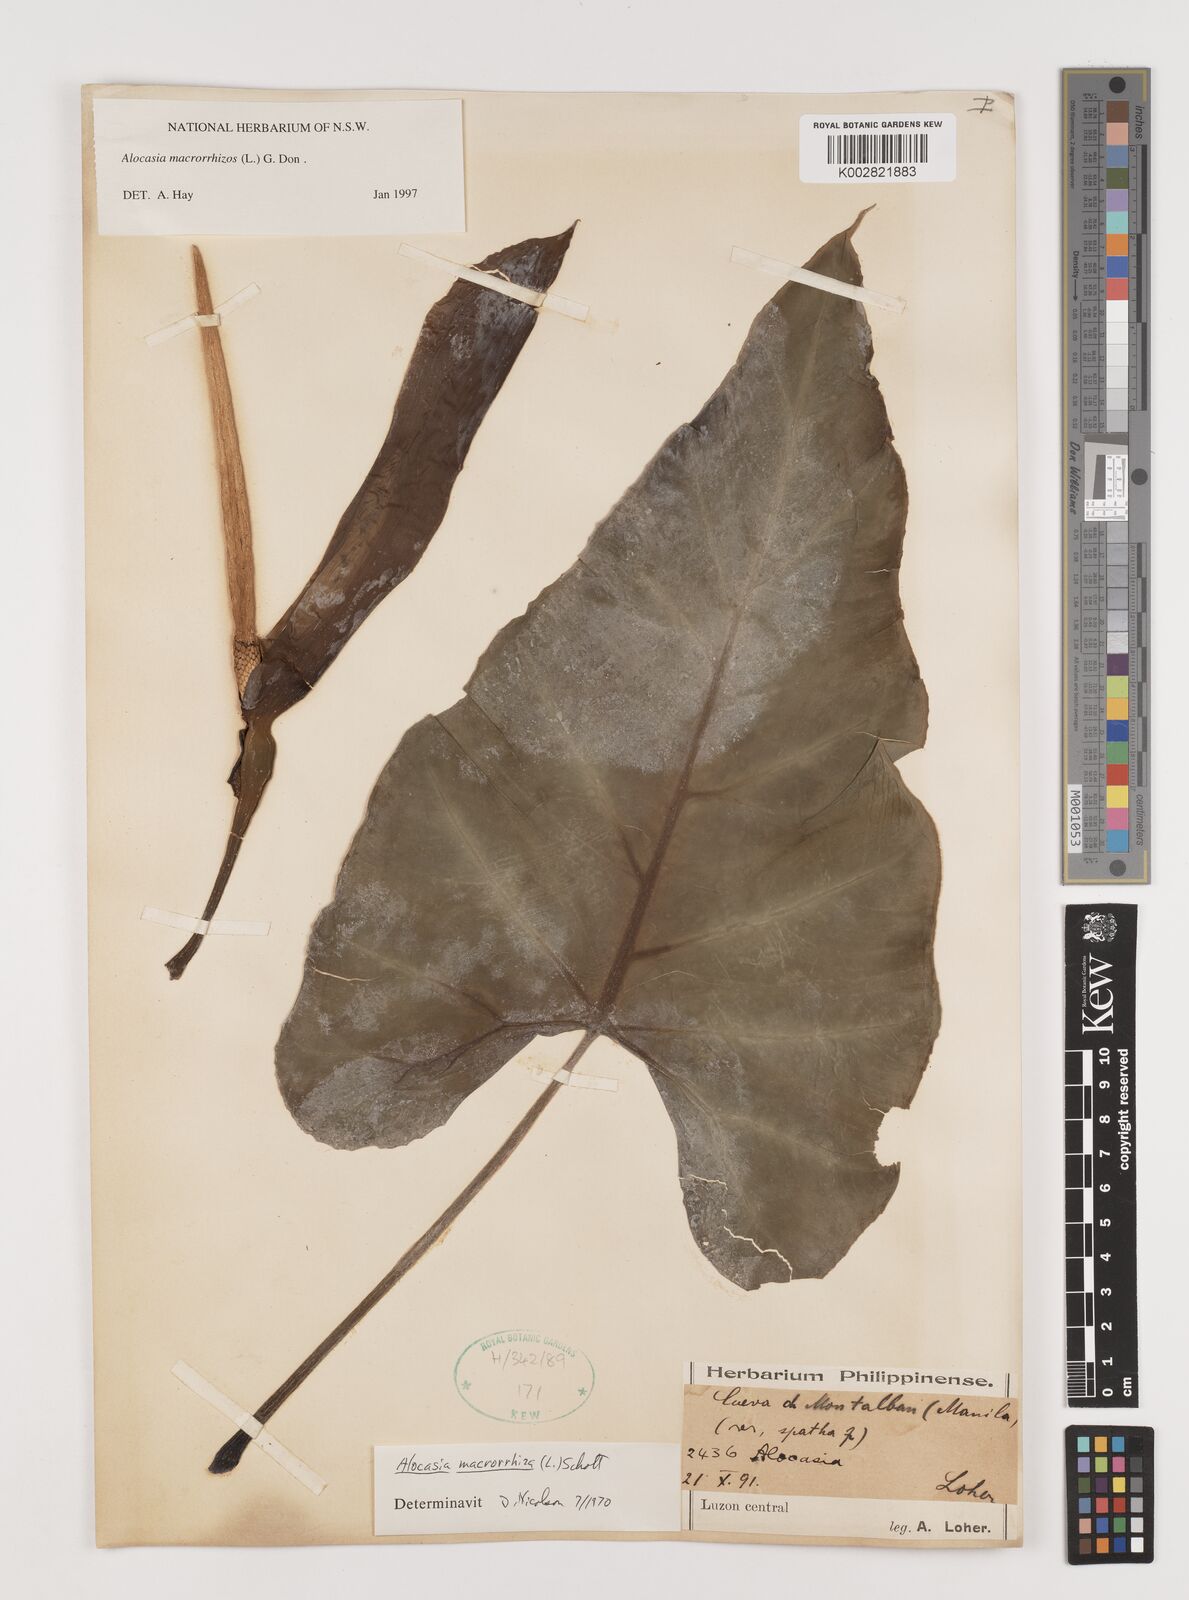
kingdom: Plantae
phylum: Tracheophyta
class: Liliopsida
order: Alismatales
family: Araceae
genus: Alocasia
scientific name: Alocasia macrorrhizos
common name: Giant taro
